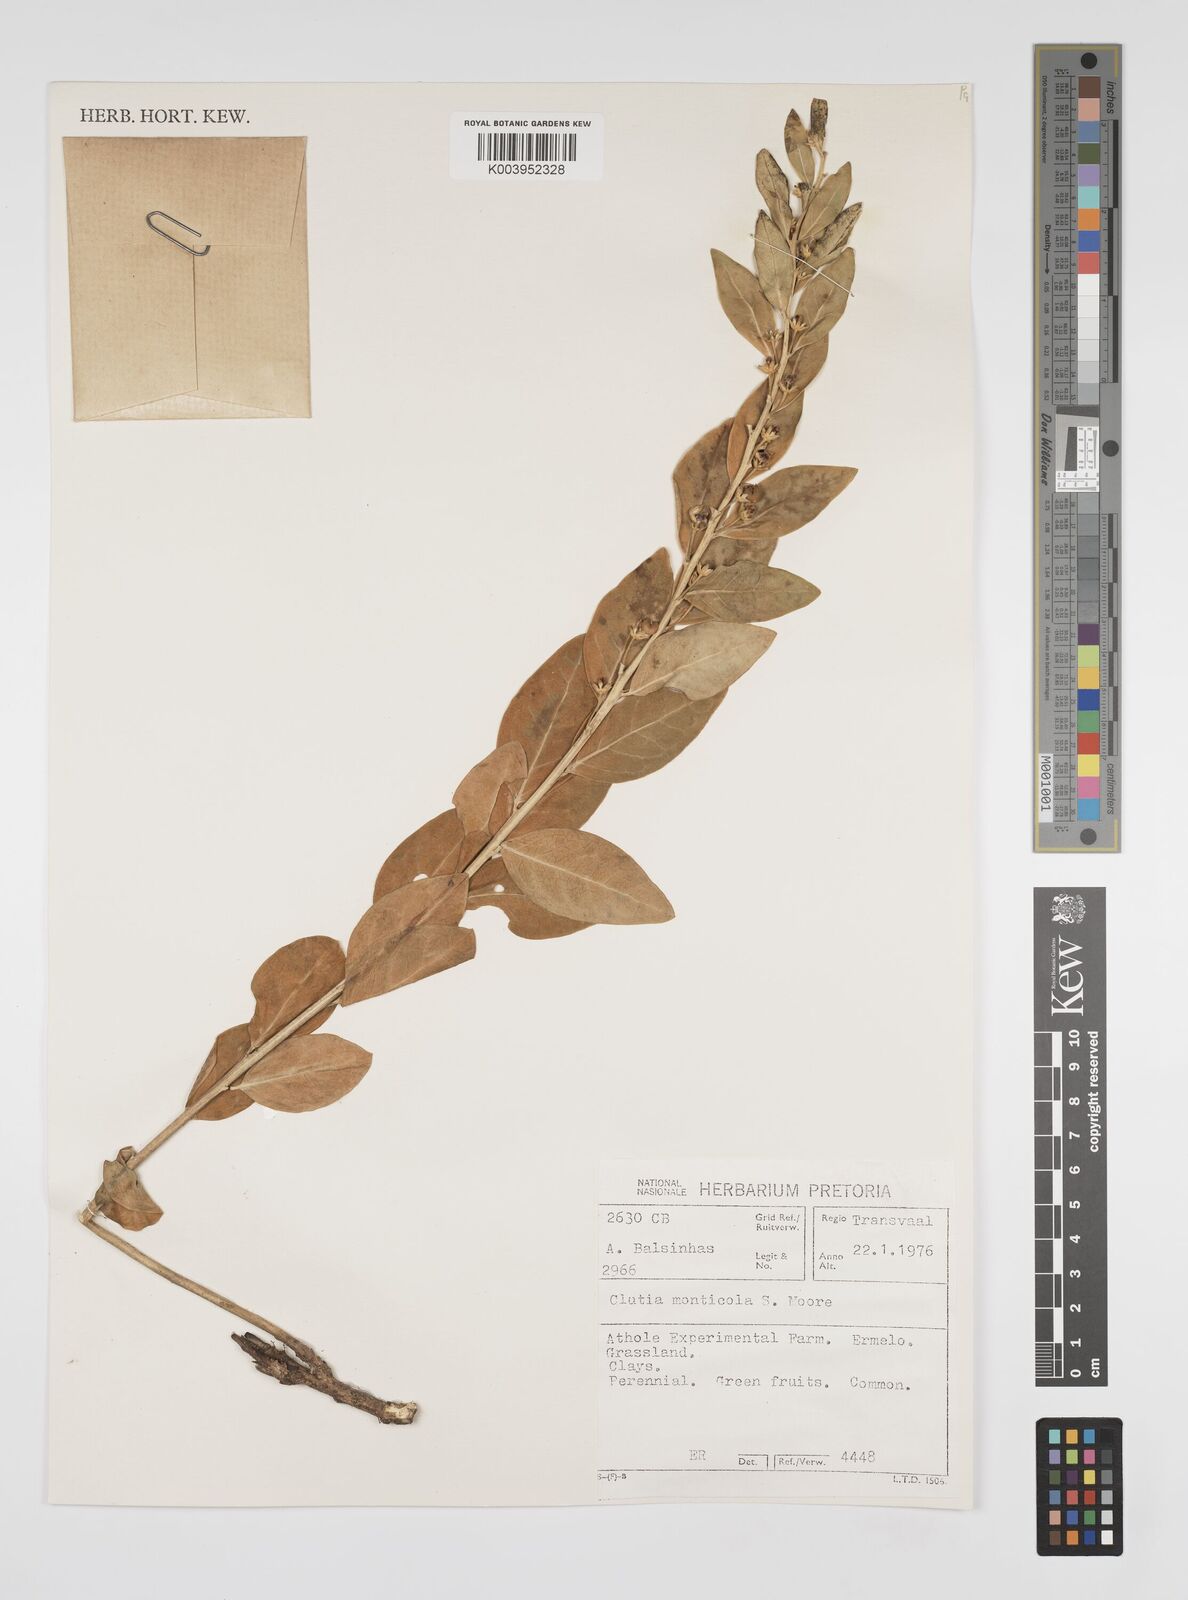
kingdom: Plantae
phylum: Tracheophyta
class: Magnoliopsida
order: Malpighiales
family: Peraceae
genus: Clutia
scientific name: Clutia monticola
